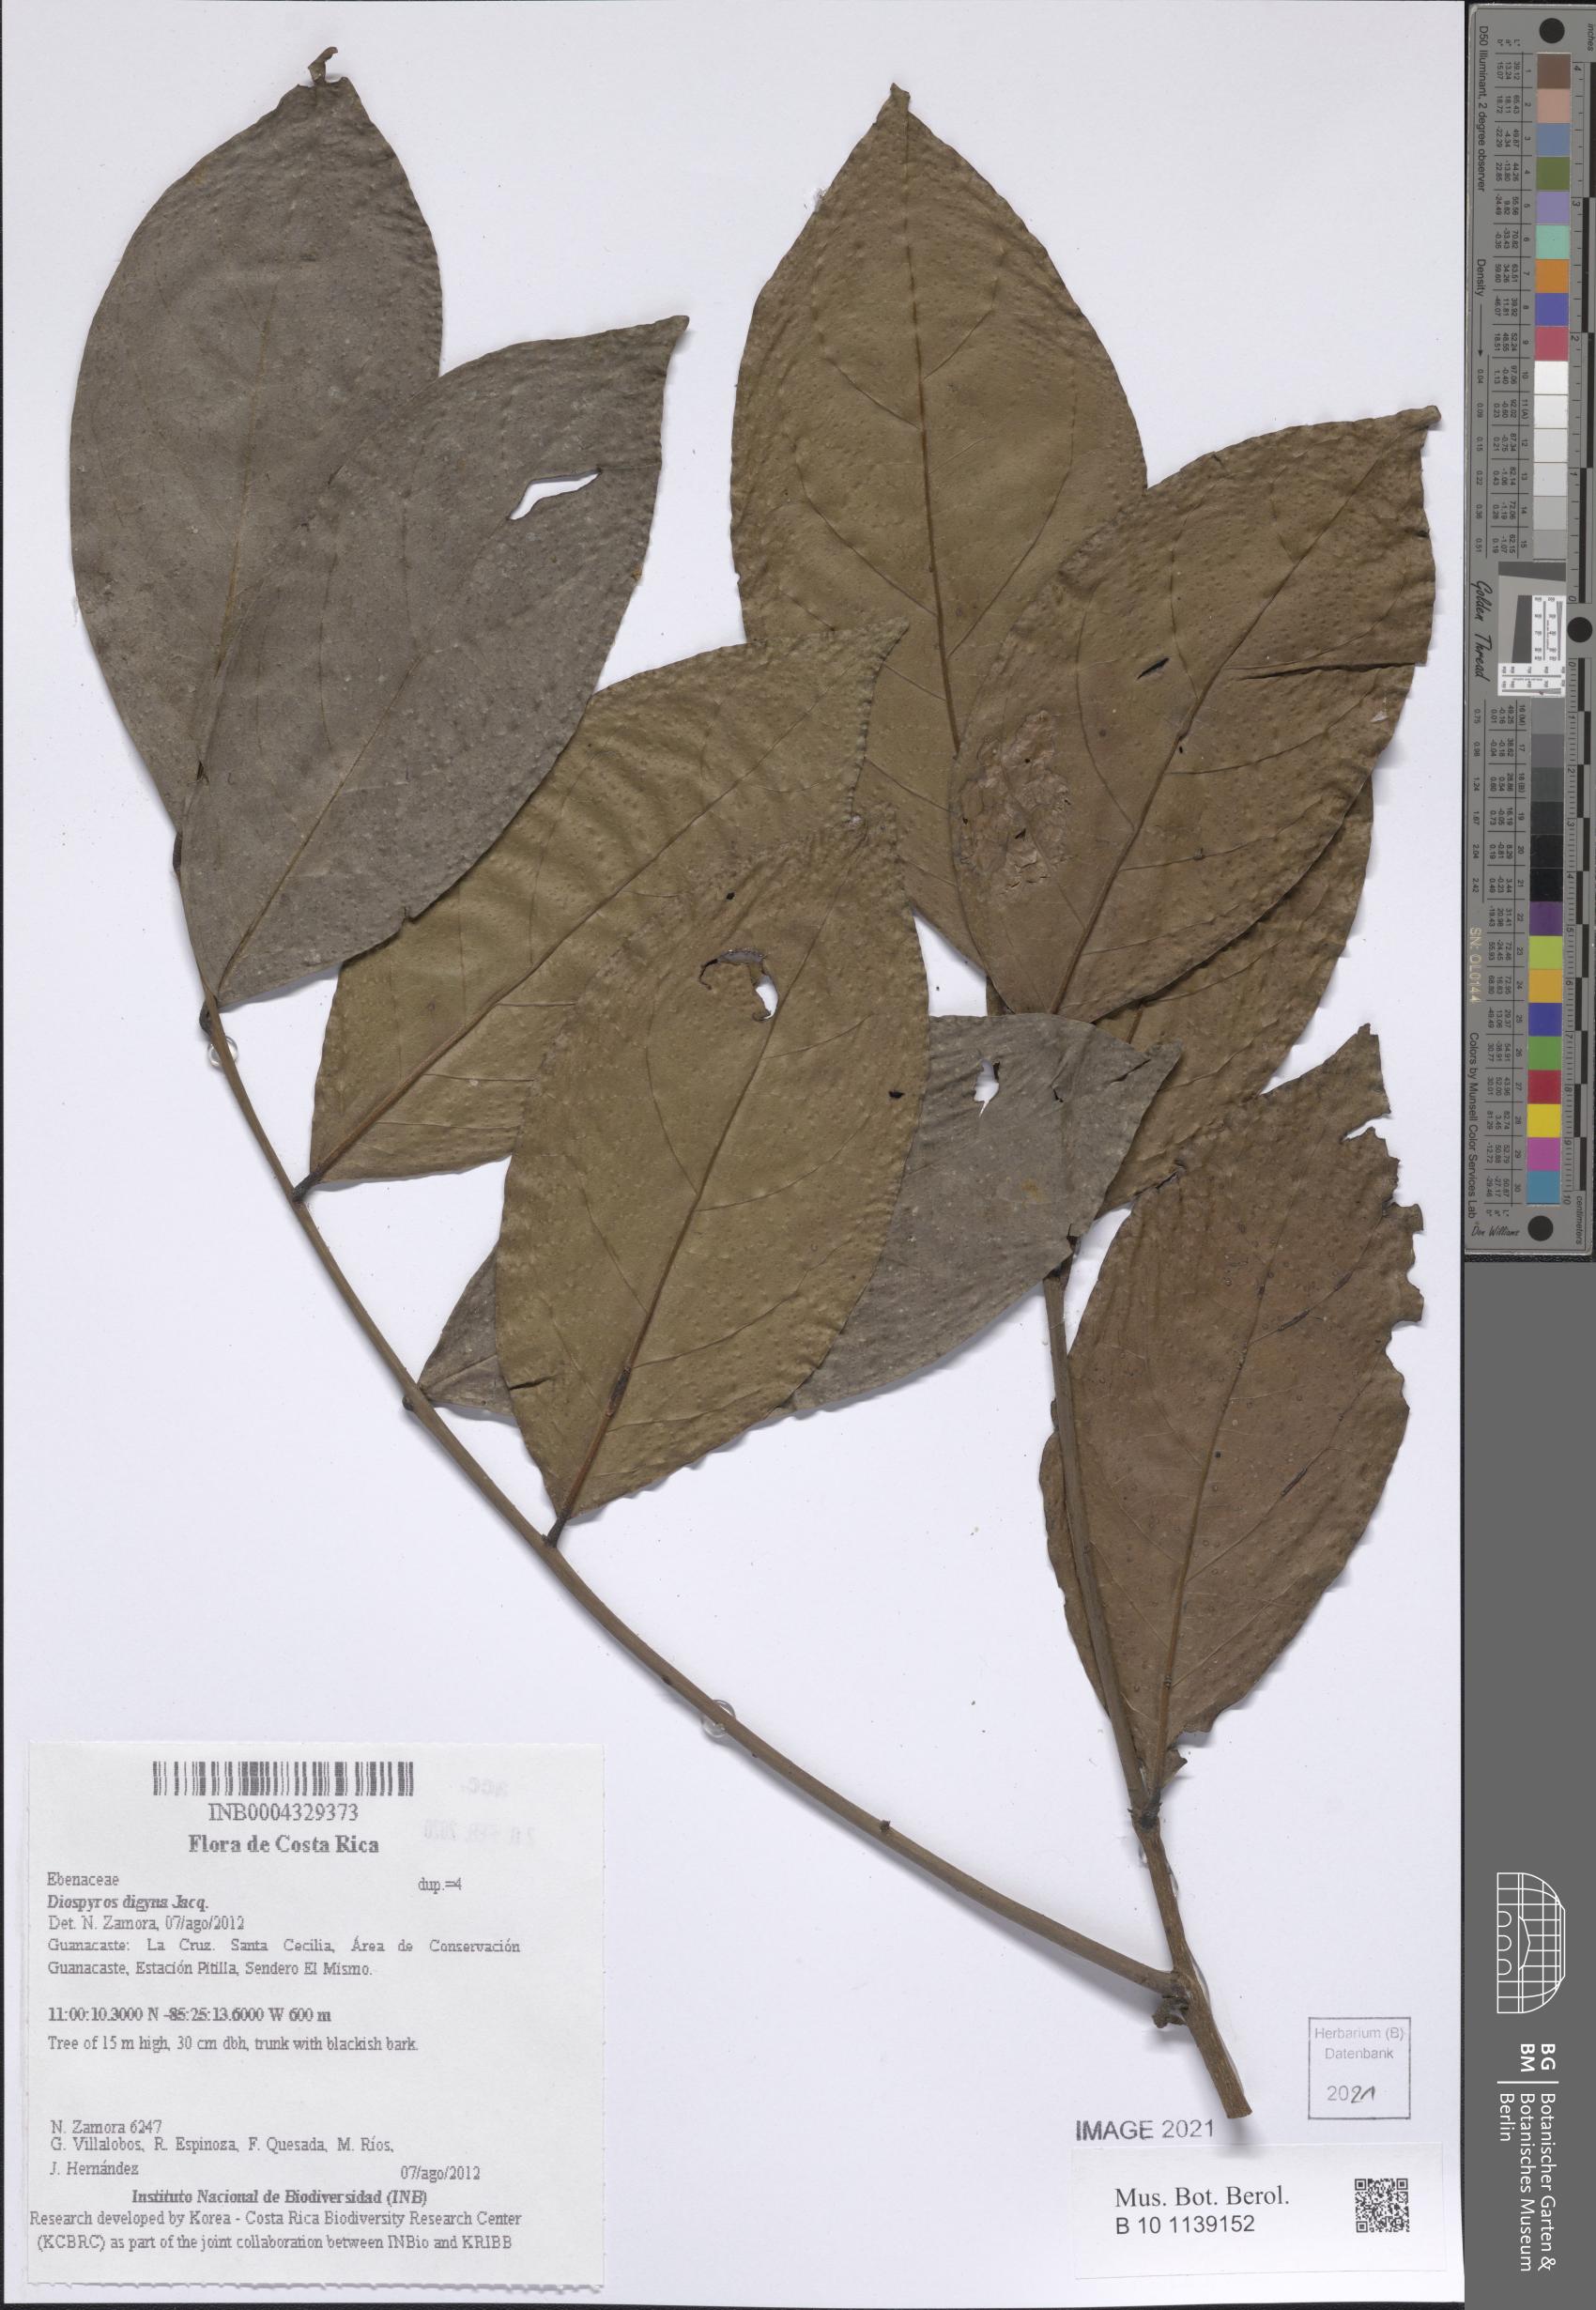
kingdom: Plantae
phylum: Tracheophyta
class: Magnoliopsida
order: Ericales
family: Ebenaceae
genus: Diospyros
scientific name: Diospyros nigra
